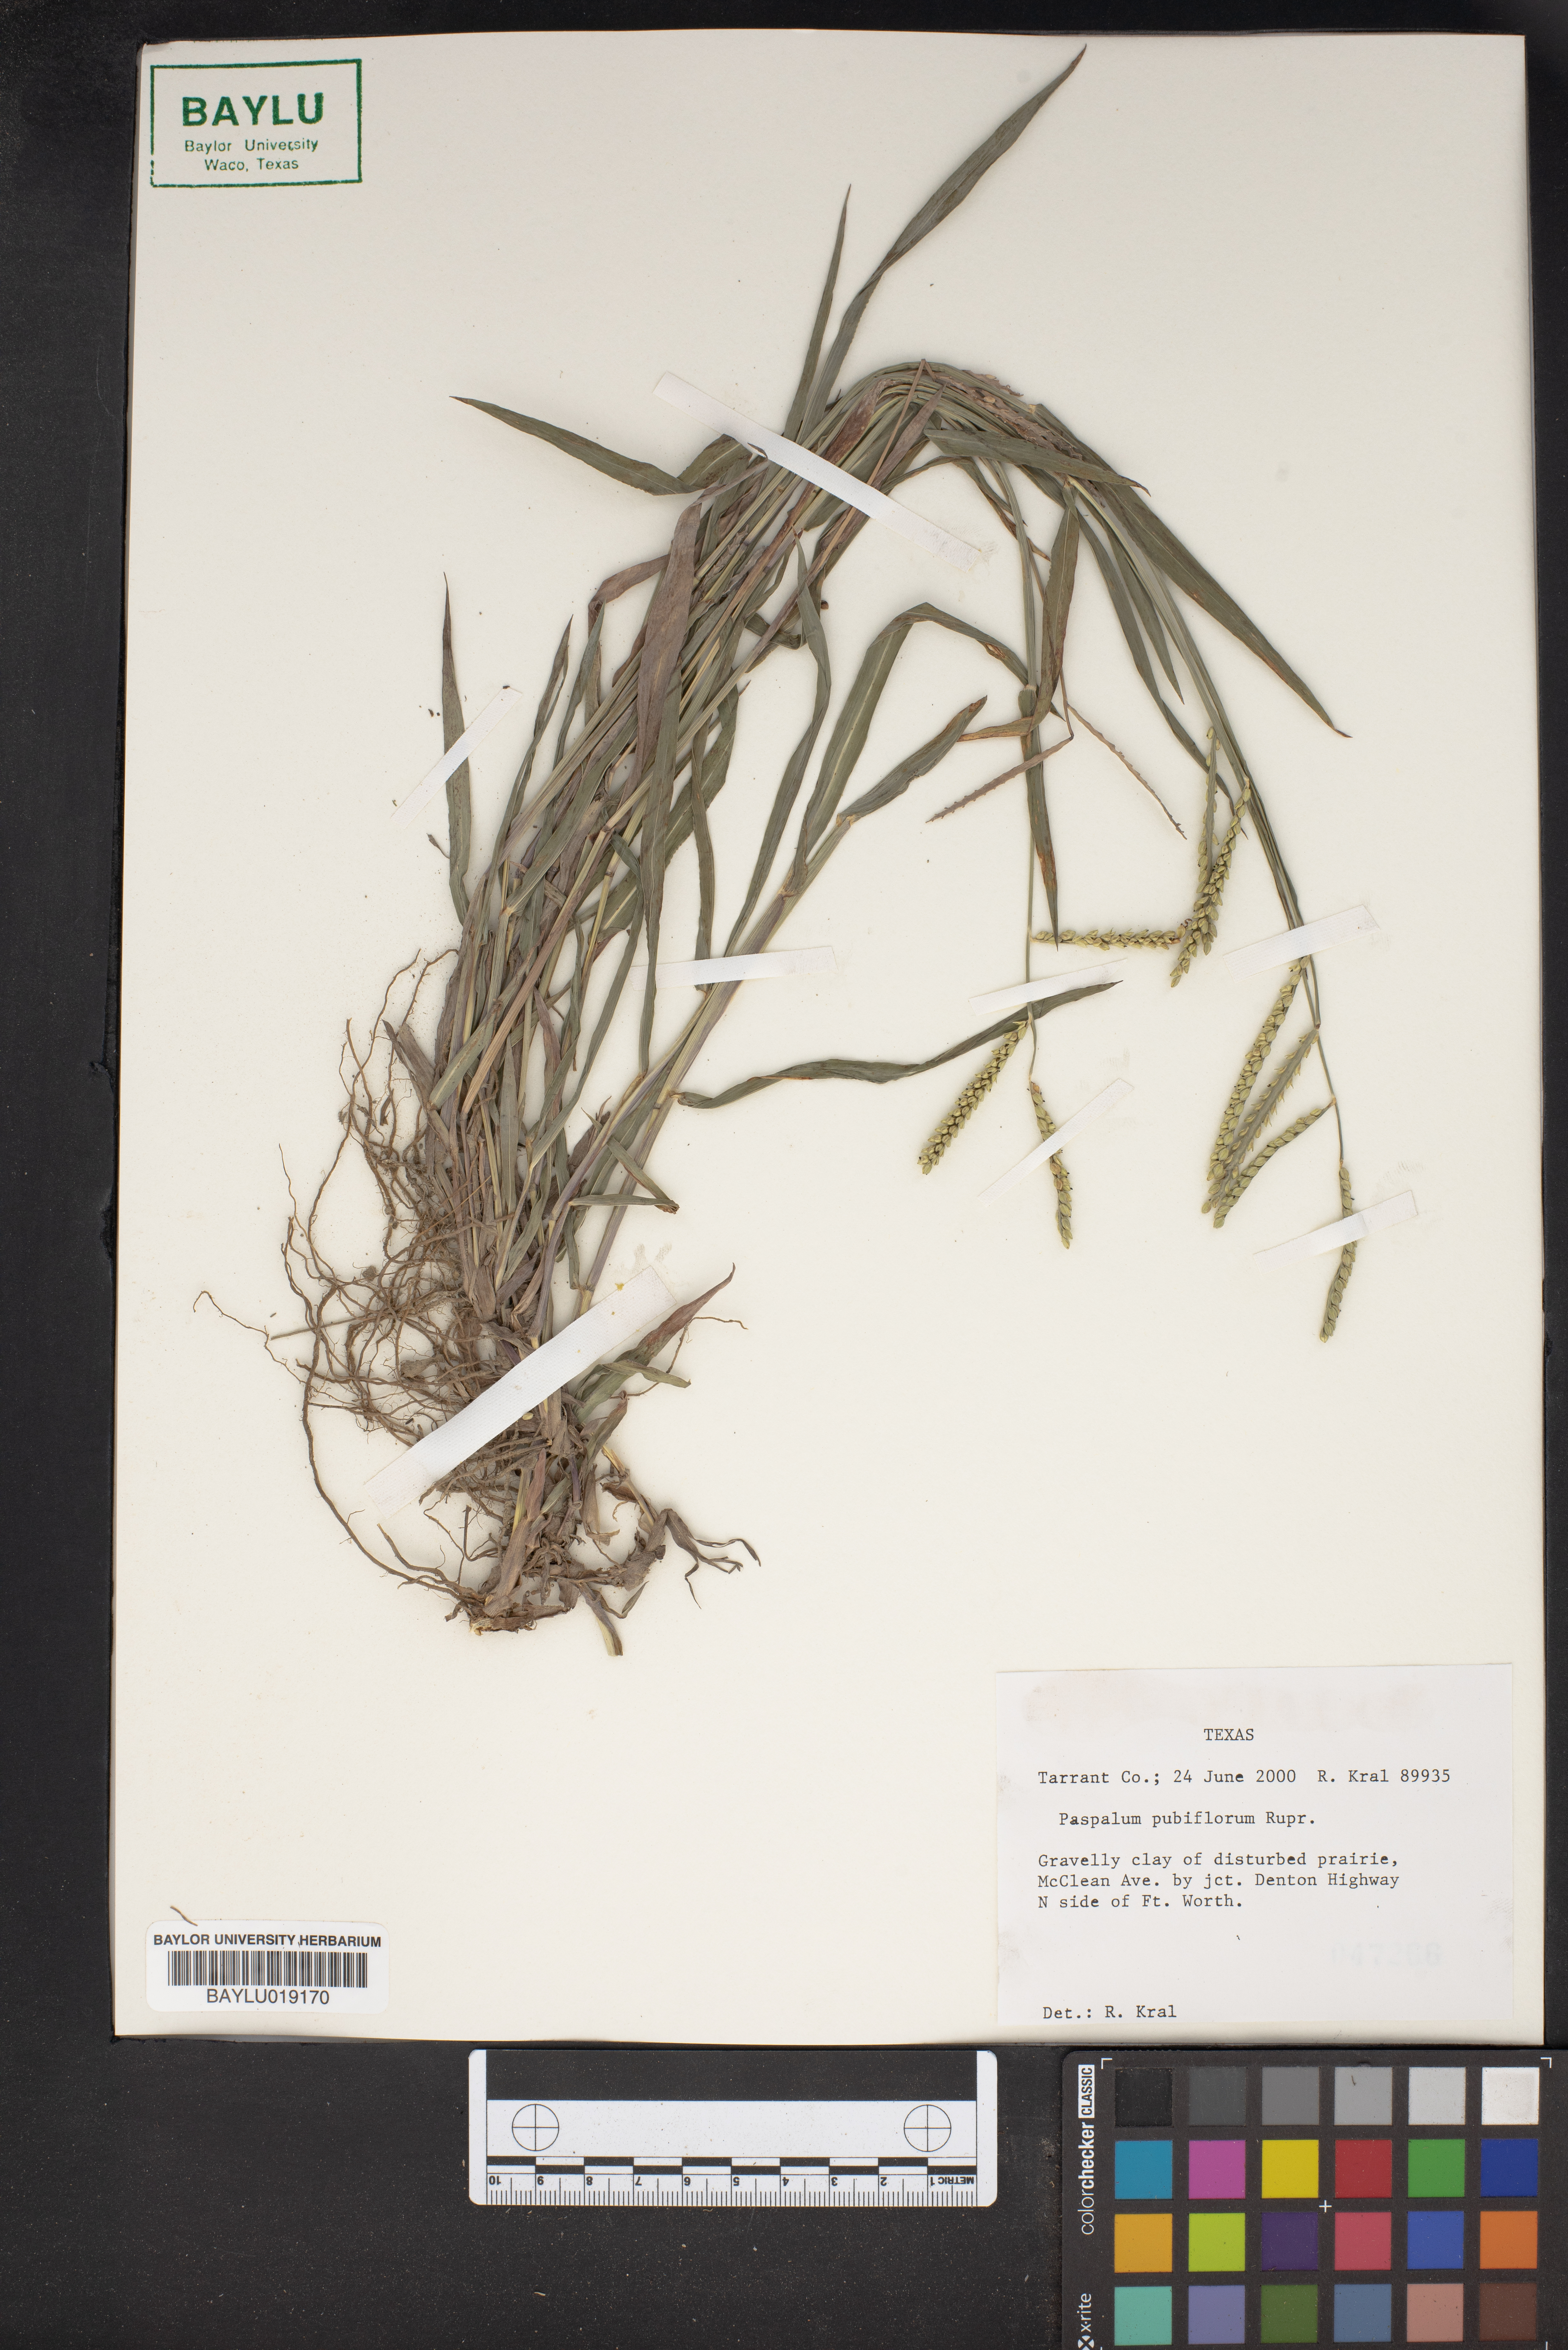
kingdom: Plantae
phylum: Tracheophyta
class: Liliopsida
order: Poales
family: Poaceae
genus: Paspalum
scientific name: Paspalum pubiflorum
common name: Hairy-seed paspalum
